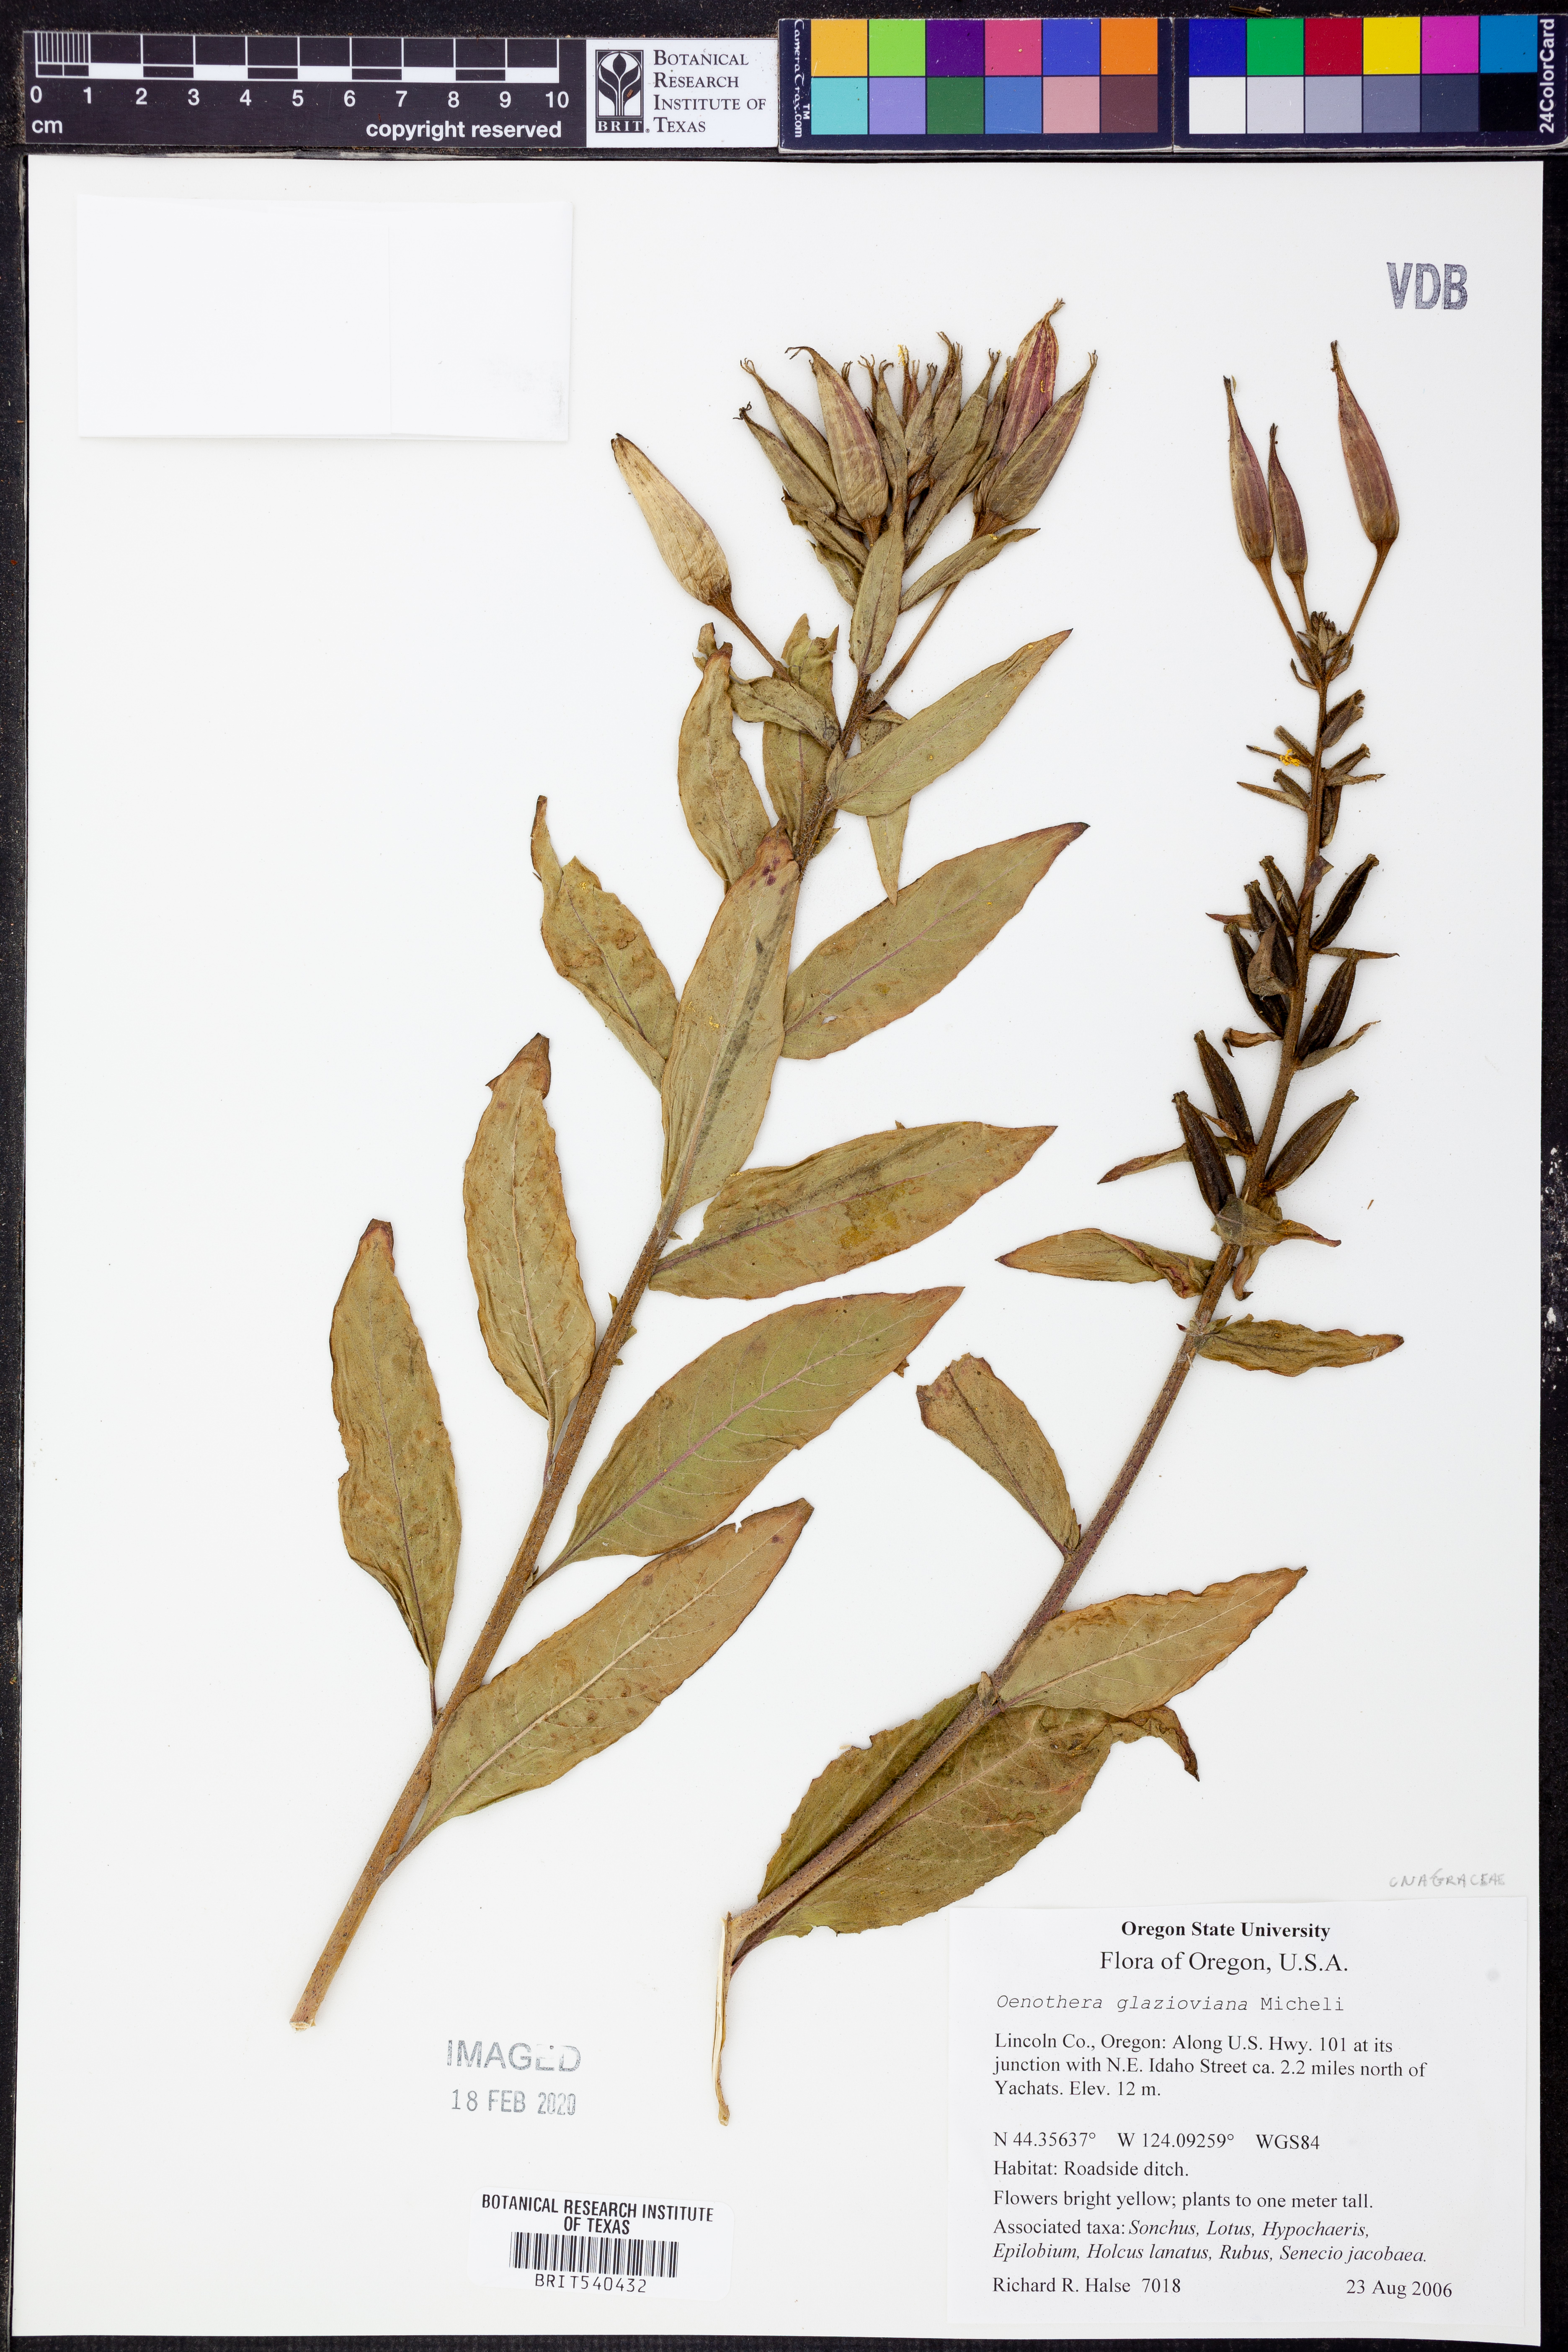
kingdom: Plantae
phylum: Tracheophyta
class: Magnoliopsida
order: Myrtales
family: Onagraceae
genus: Oenothera
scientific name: Oenothera glazioviana
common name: Large-flowered evening-primrose
